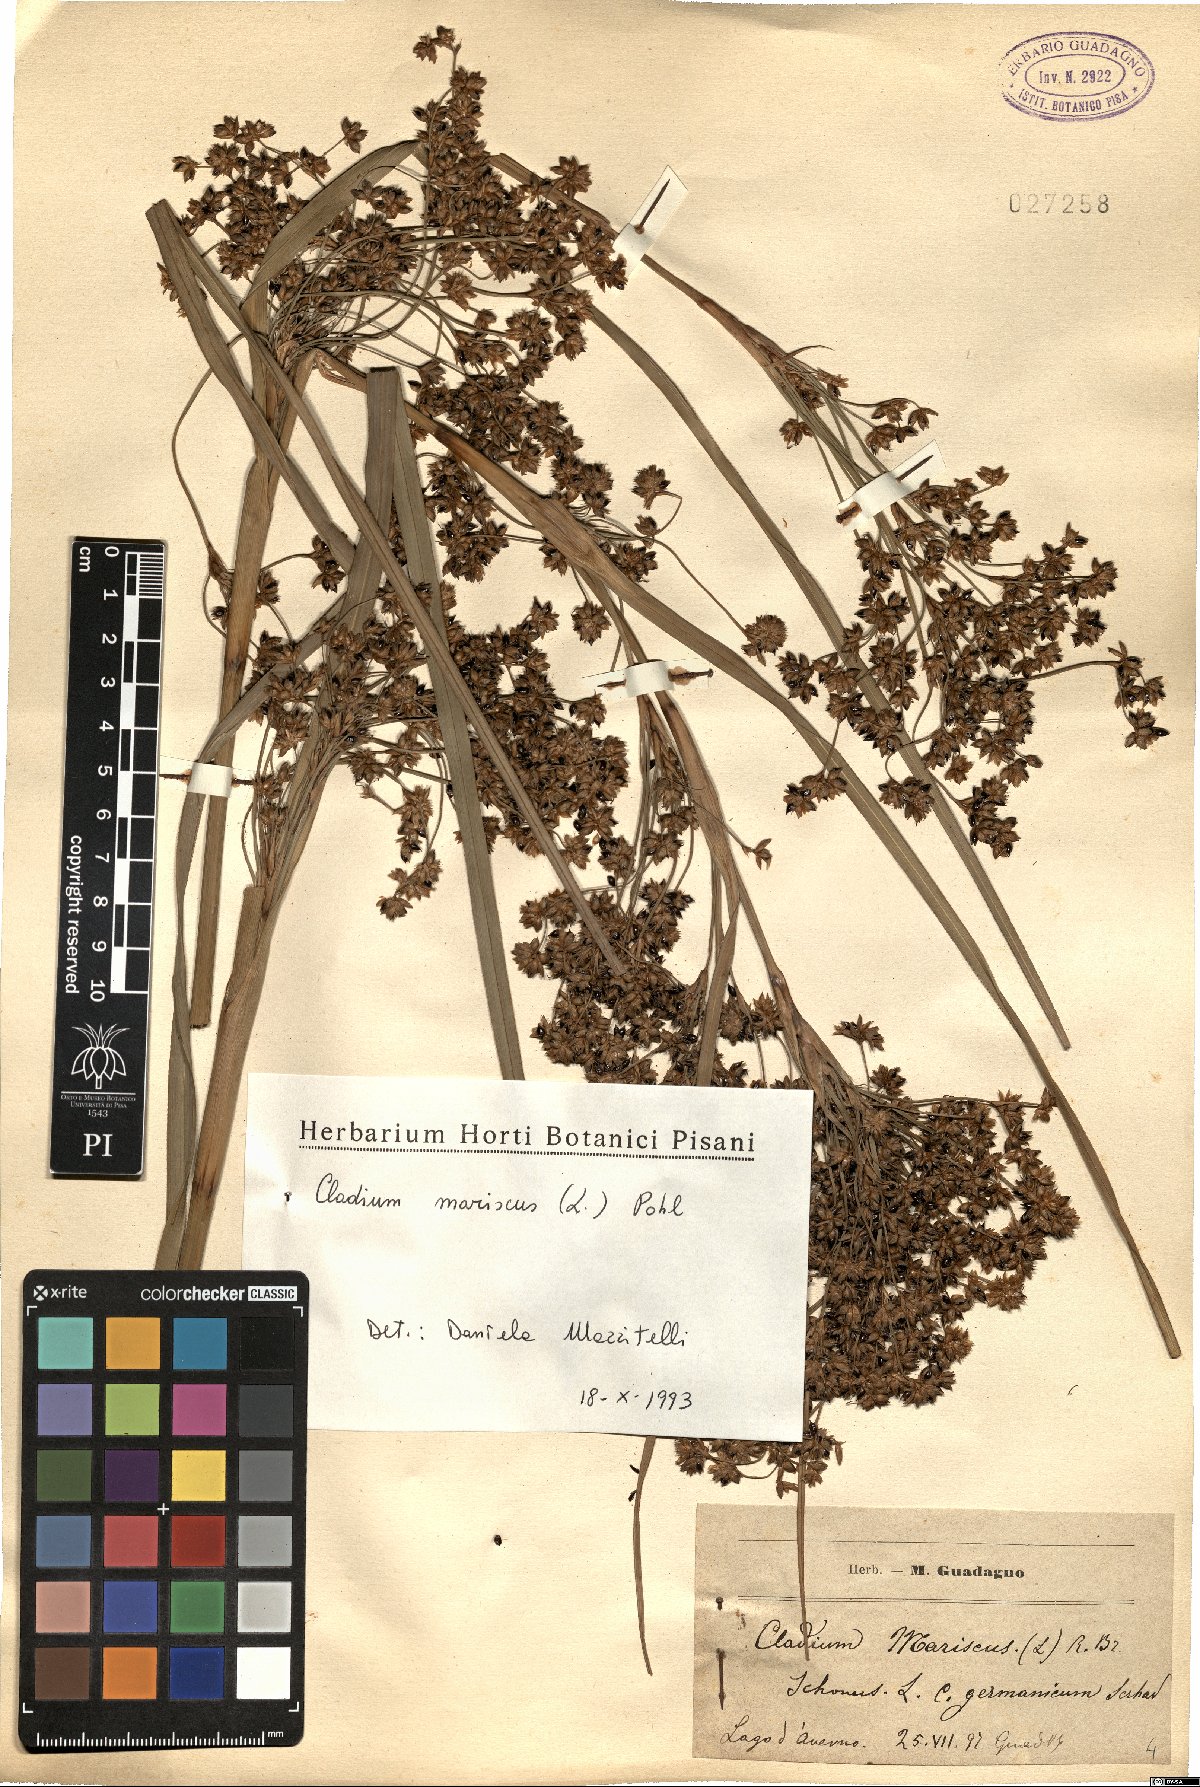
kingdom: Plantae
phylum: Tracheophyta
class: Liliopsida
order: Poales
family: Cyperaceae
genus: Cladium
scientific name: Cladium mariscus
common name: Great fen-sedge
